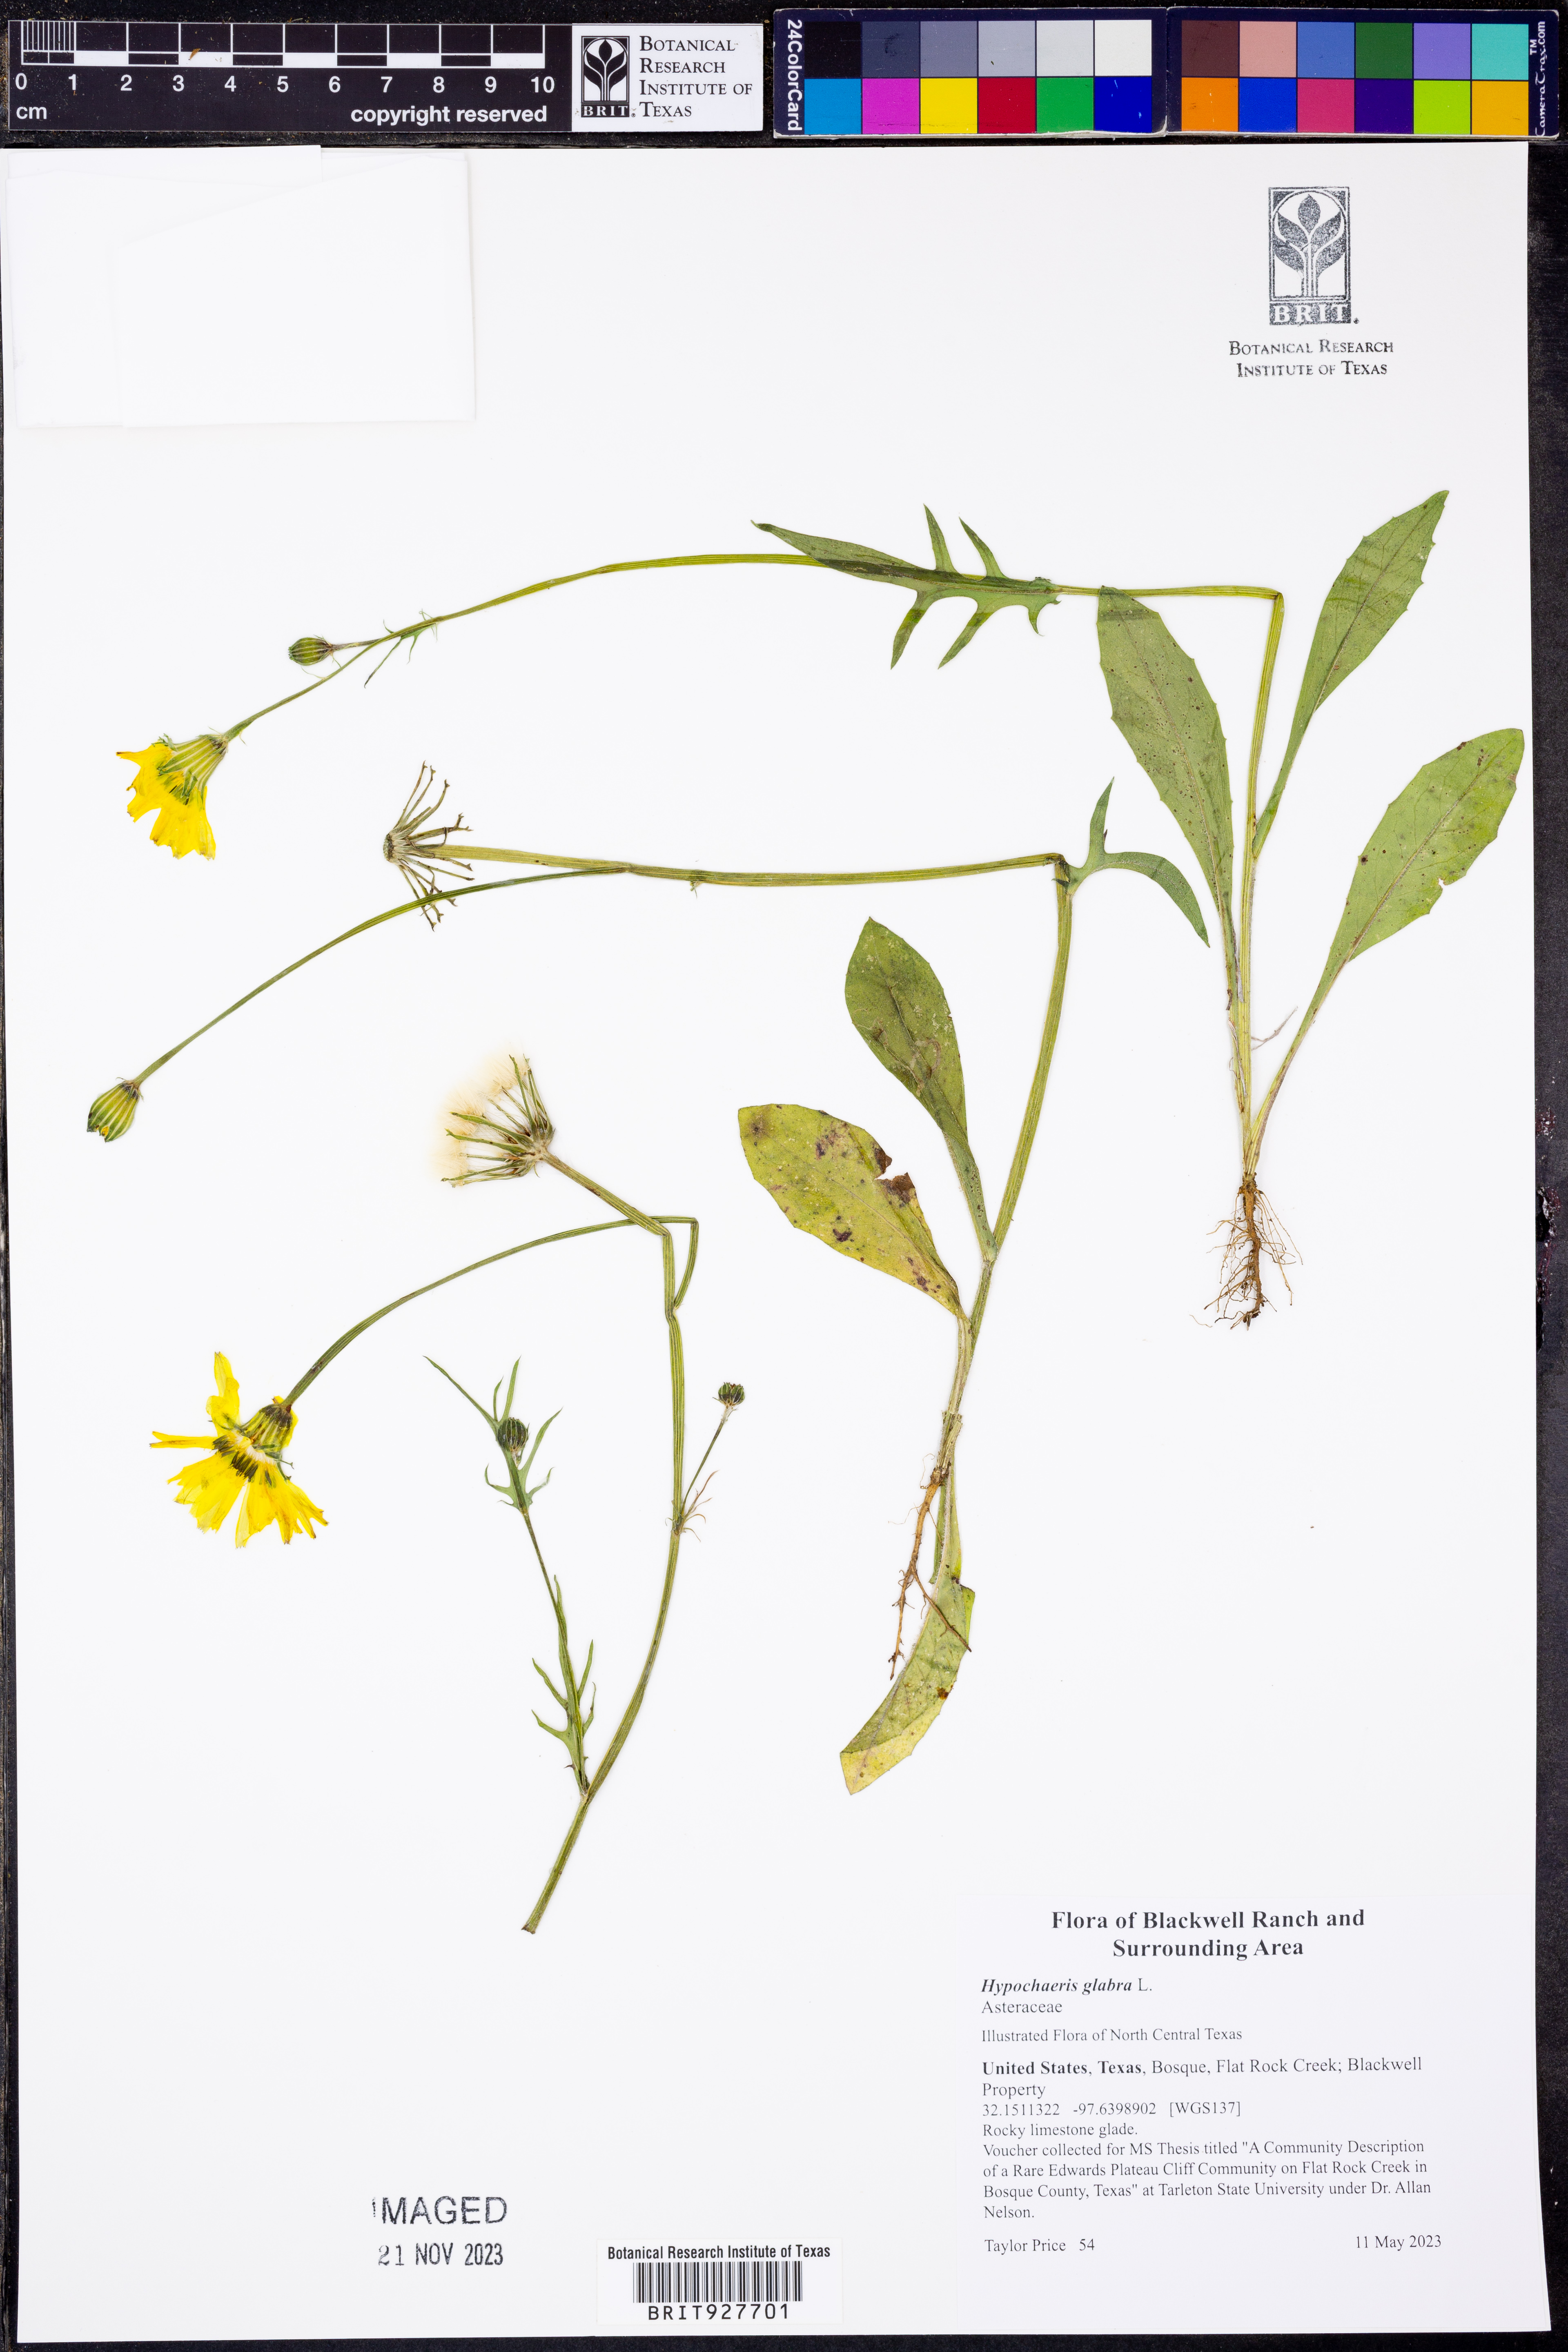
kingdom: Plantae
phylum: Tracheophyta
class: Magnoliopsida
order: Asterales
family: Asteraceae
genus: Hypochaeris
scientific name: Hypochaeris glabra
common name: Smooth catsear
